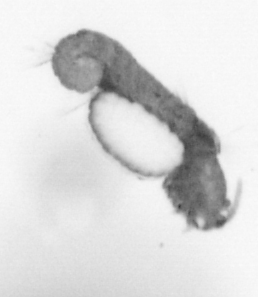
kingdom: Animalia
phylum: Annelida
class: Polychaeta
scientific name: Polychaeta
